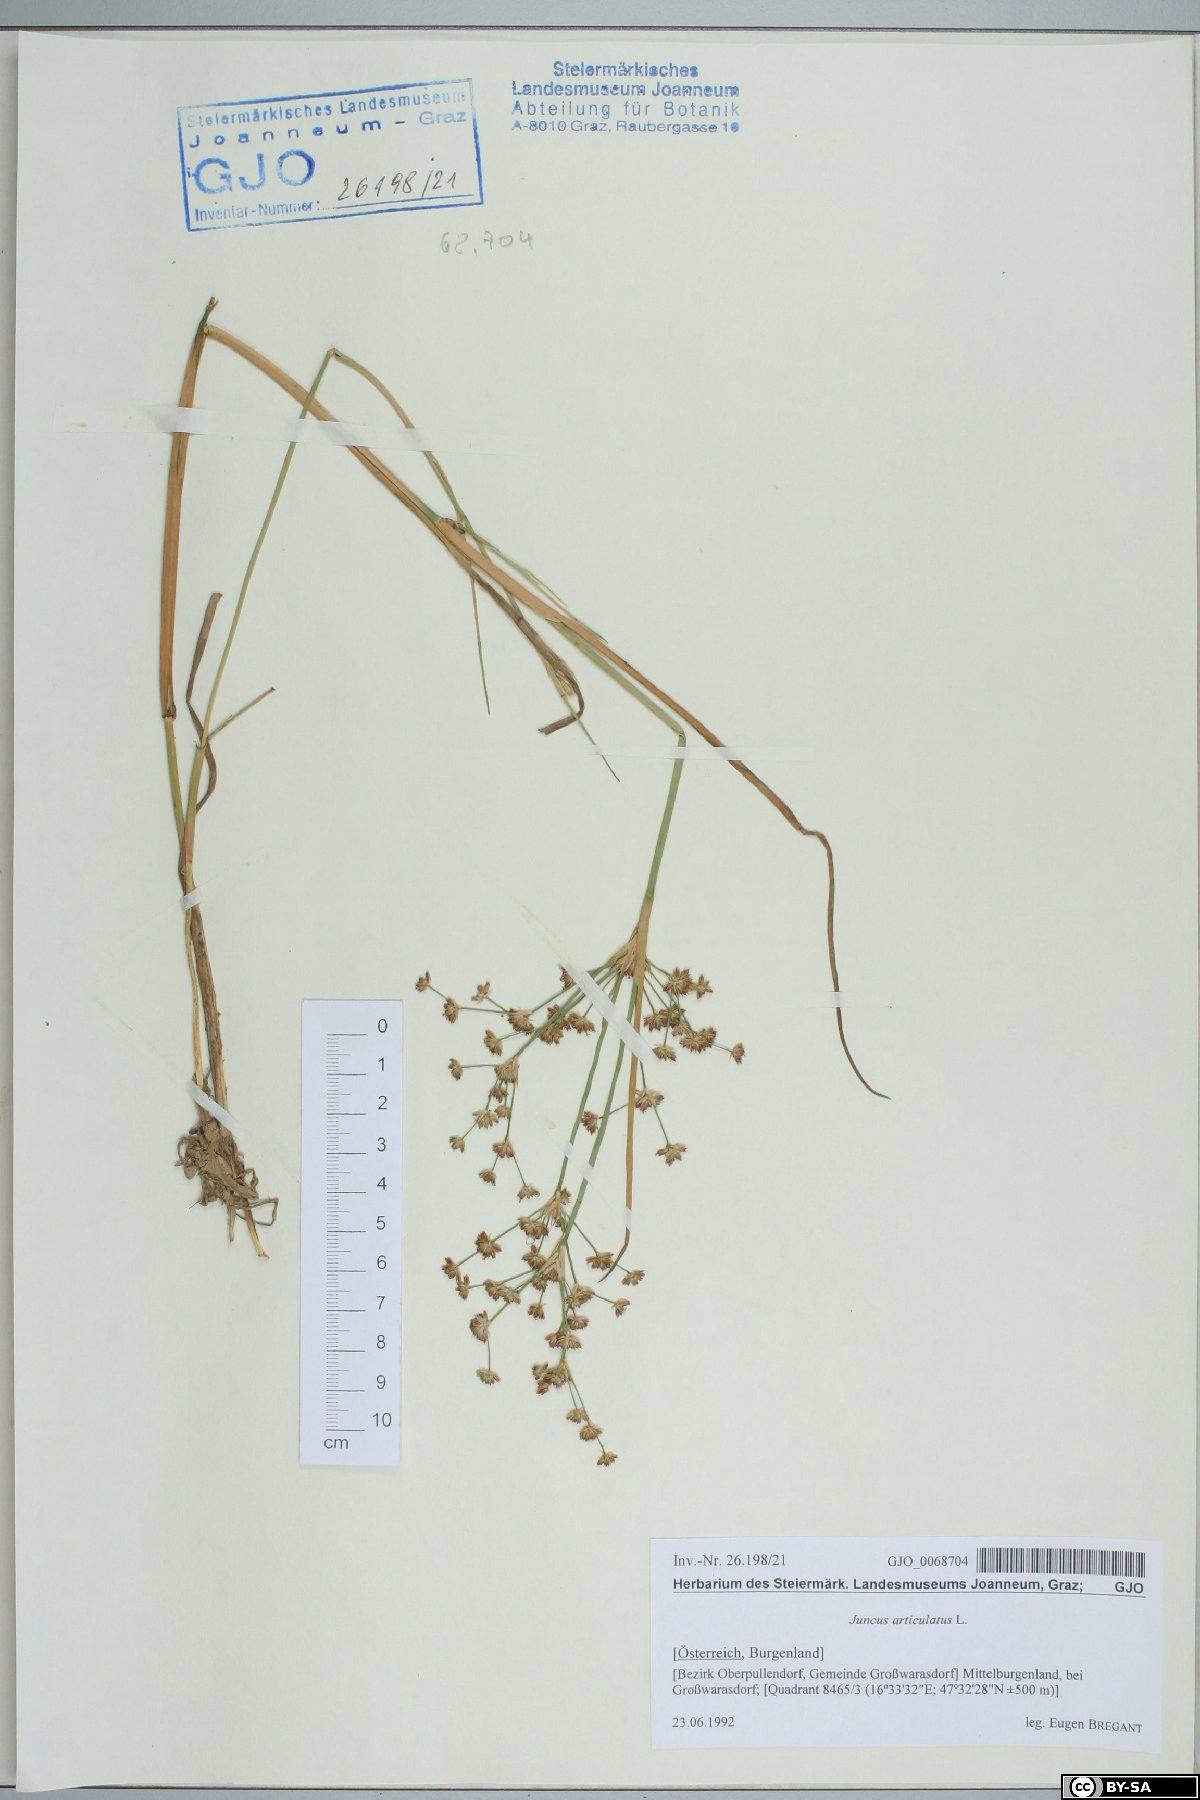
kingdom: Plantae
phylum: Tracheophyta
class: Liliopsida
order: Poales
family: Juncaceae
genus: Juncus
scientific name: Juncus articulatus
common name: Jointed rush
